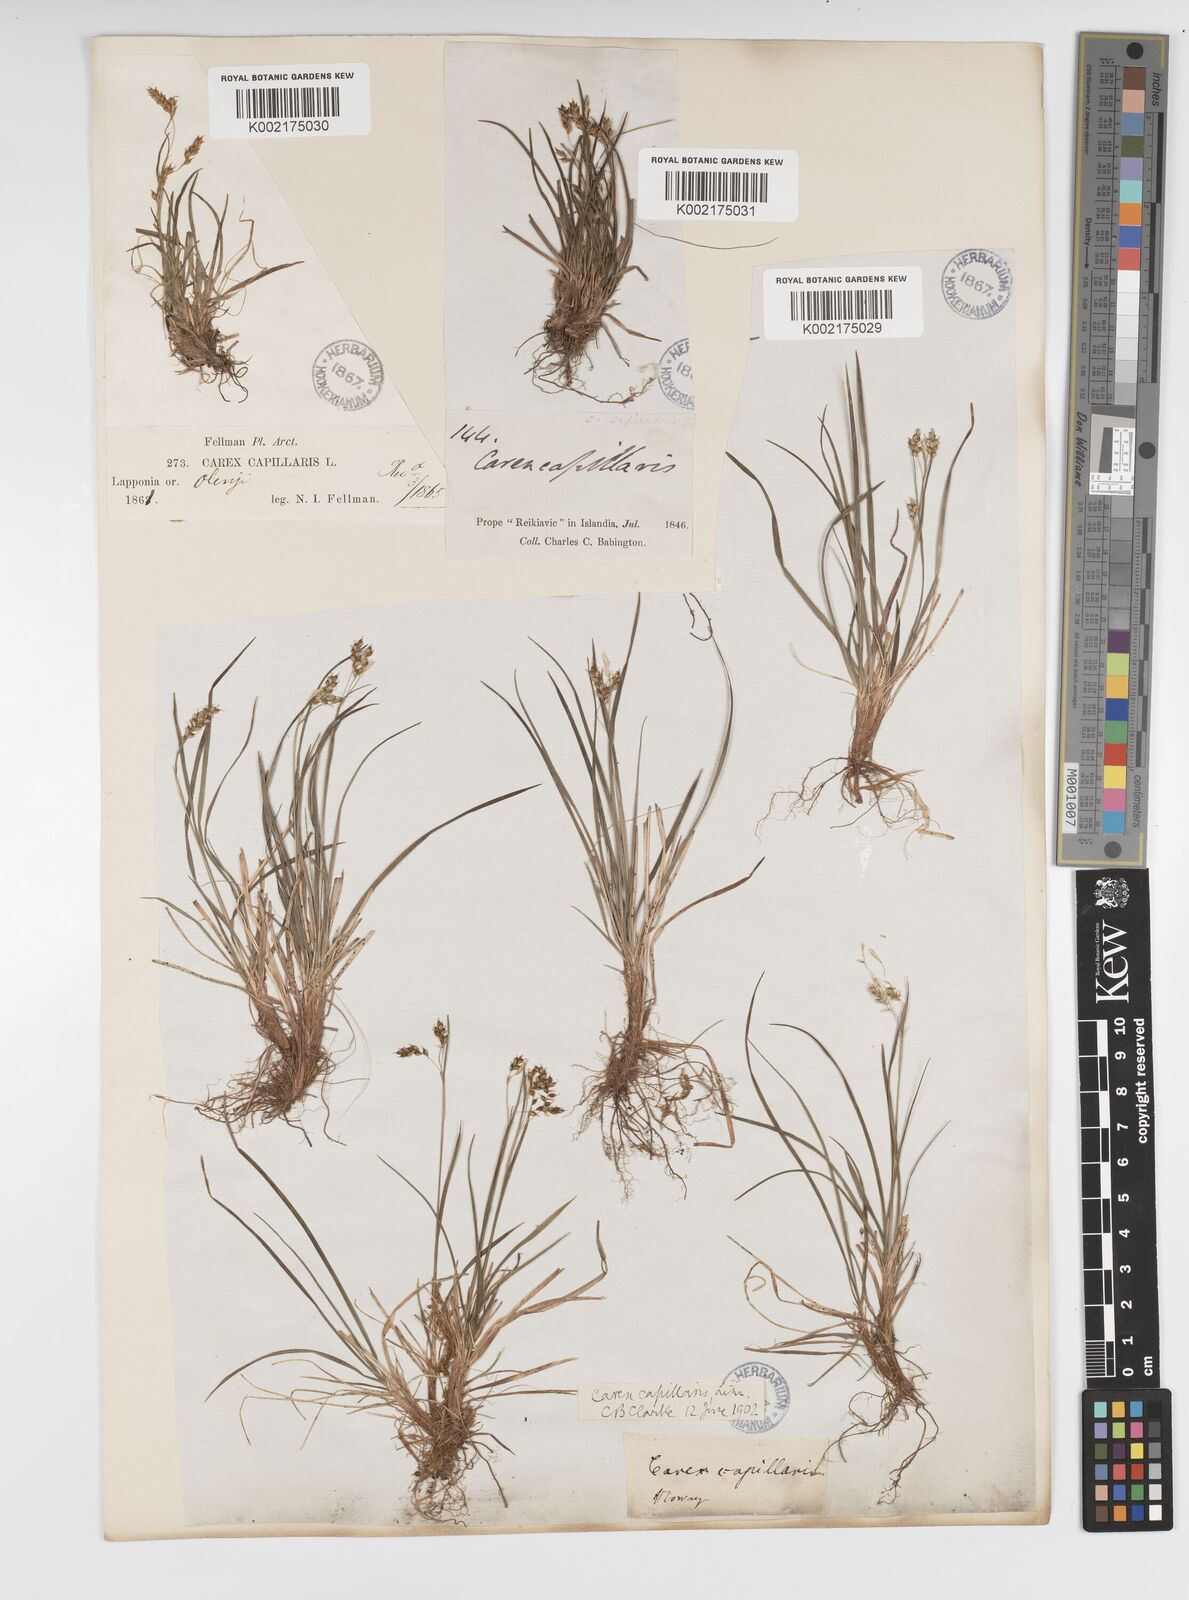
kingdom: Plantae
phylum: Tracheophyta
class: Liliopsida
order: Poales
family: Cyperaceae
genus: Carex
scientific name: Carex capillaris
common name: Hair sedge
